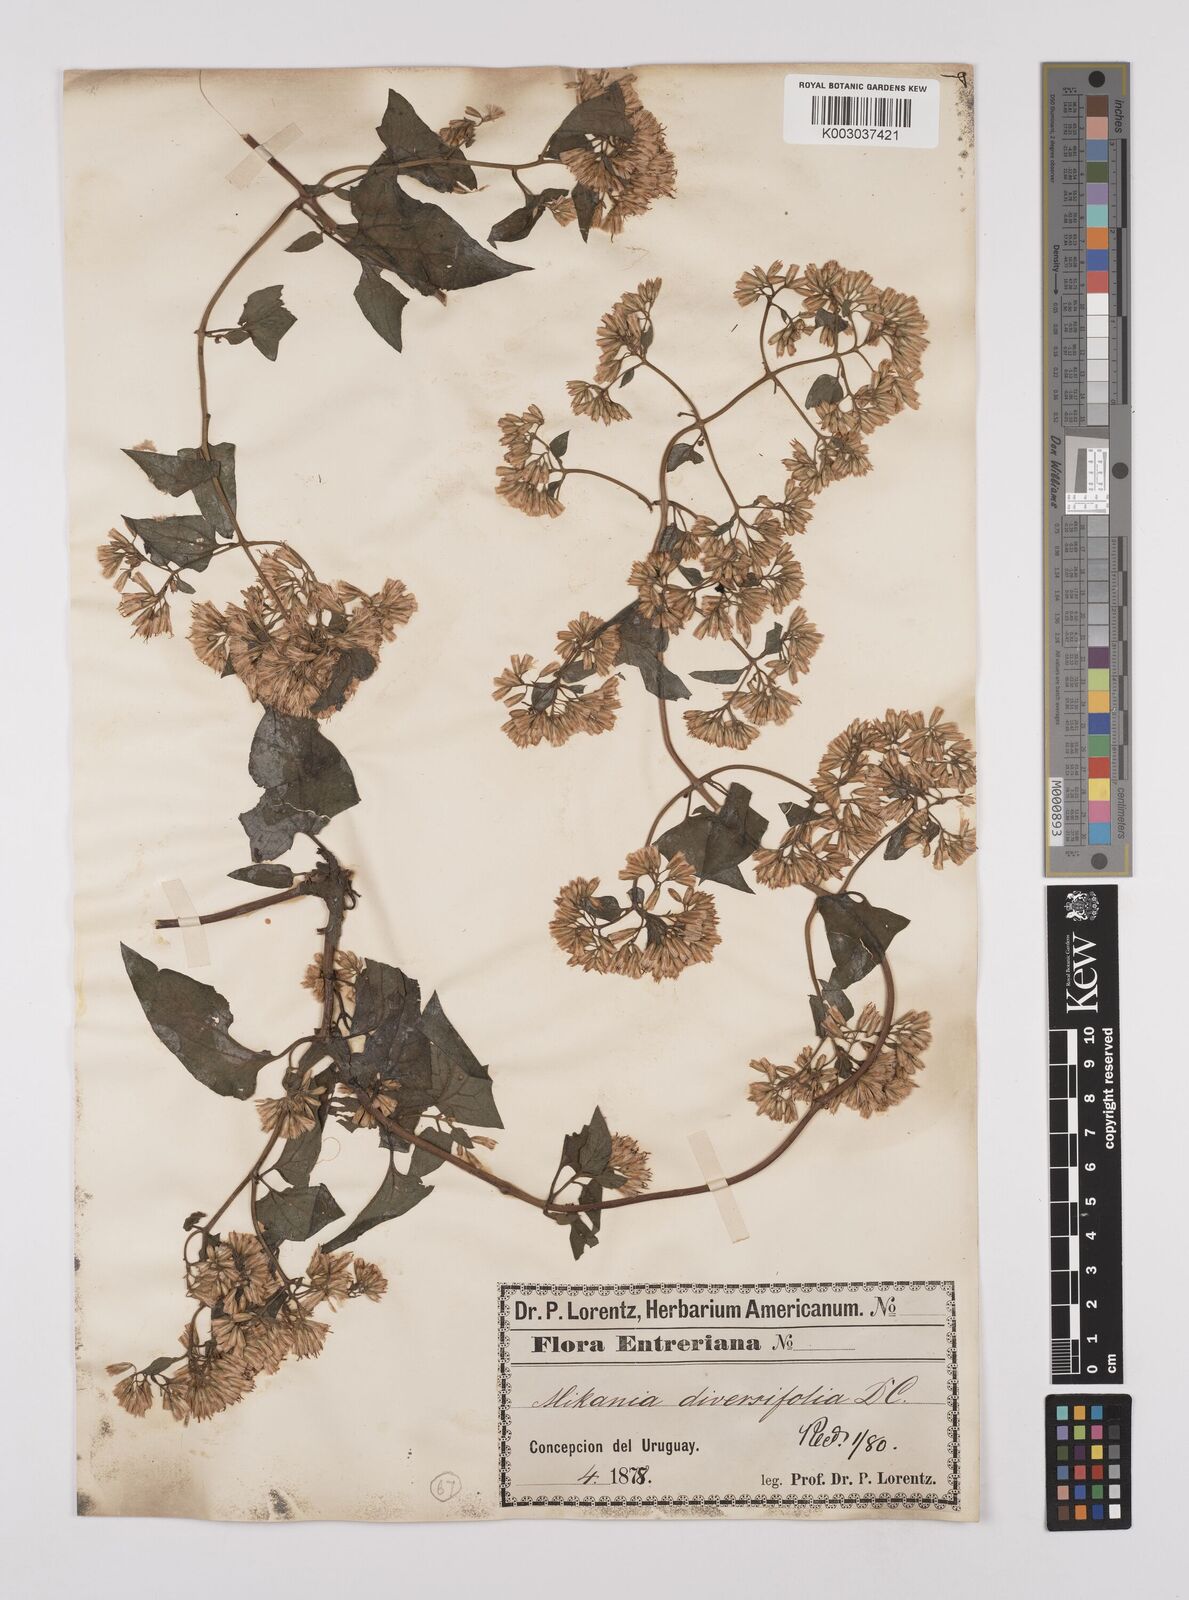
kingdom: Plantae
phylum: Tracheophyta
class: Magnoliopsida
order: Asterales
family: Asteraceae
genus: Mikania
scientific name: Mikania diversifolia
